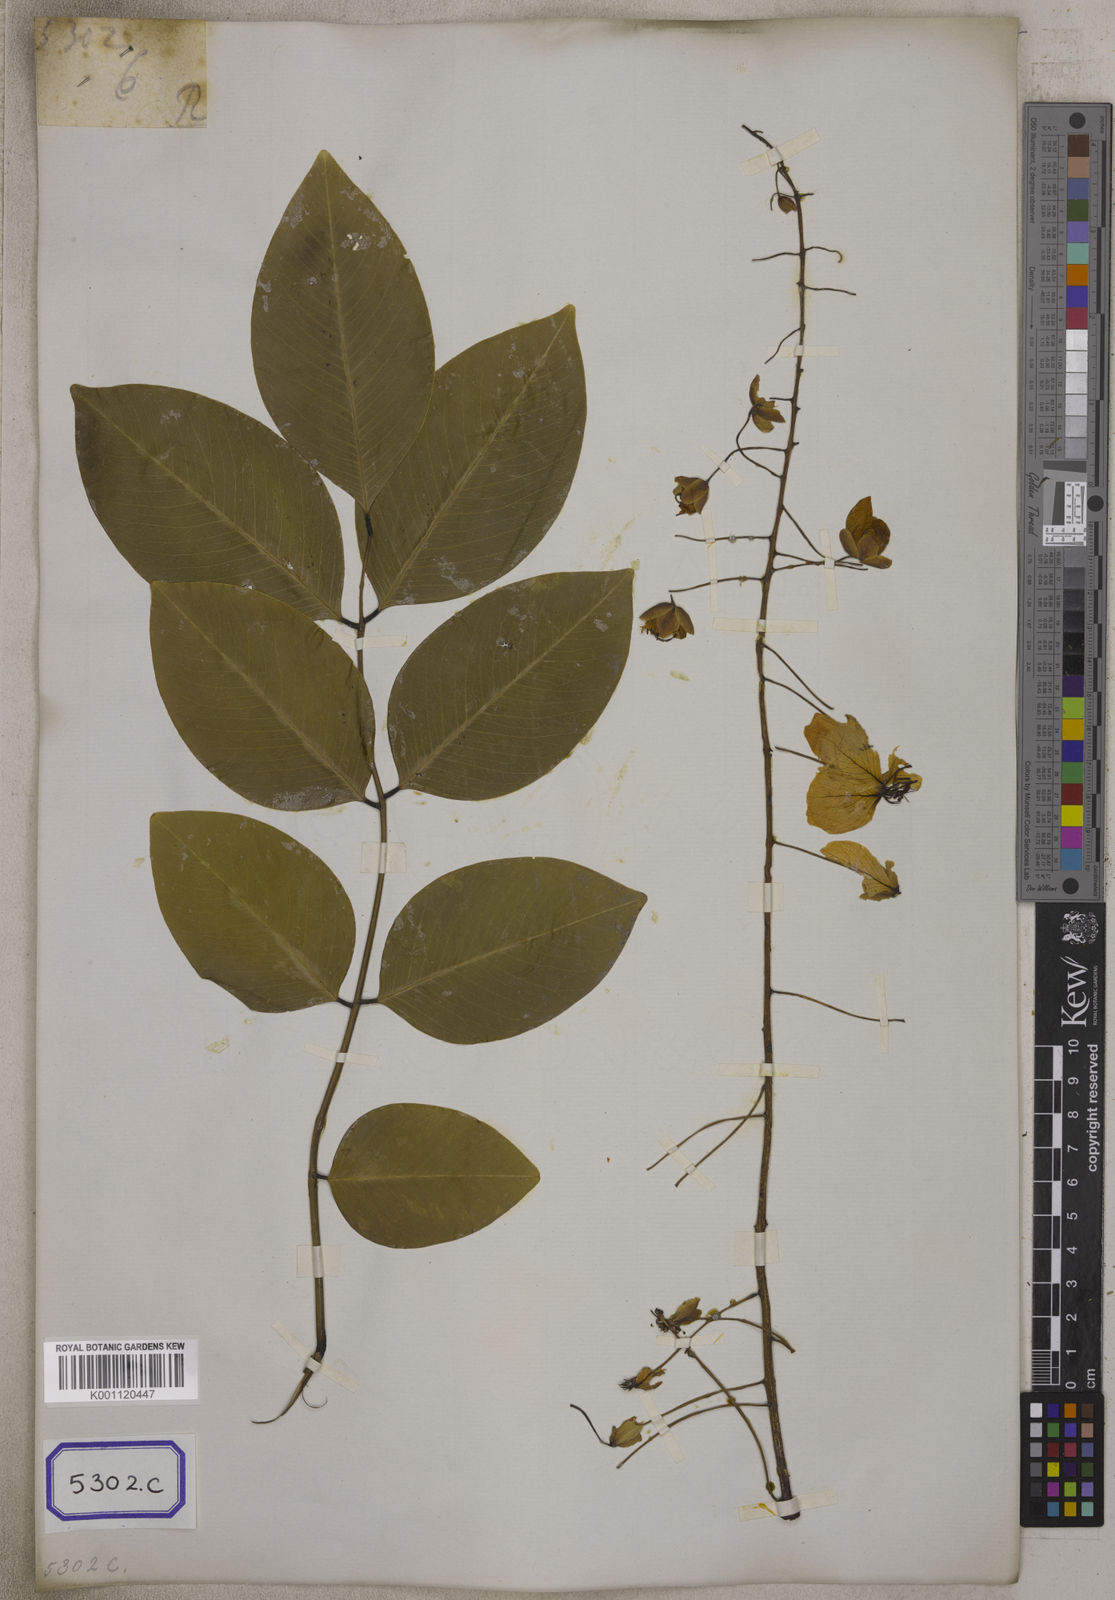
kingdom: Plantae
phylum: Tracheophyta
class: Magnoliopsida
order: Fabales
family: Fabaceae
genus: Cassia
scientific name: Cassia fistula
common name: Golden shower
